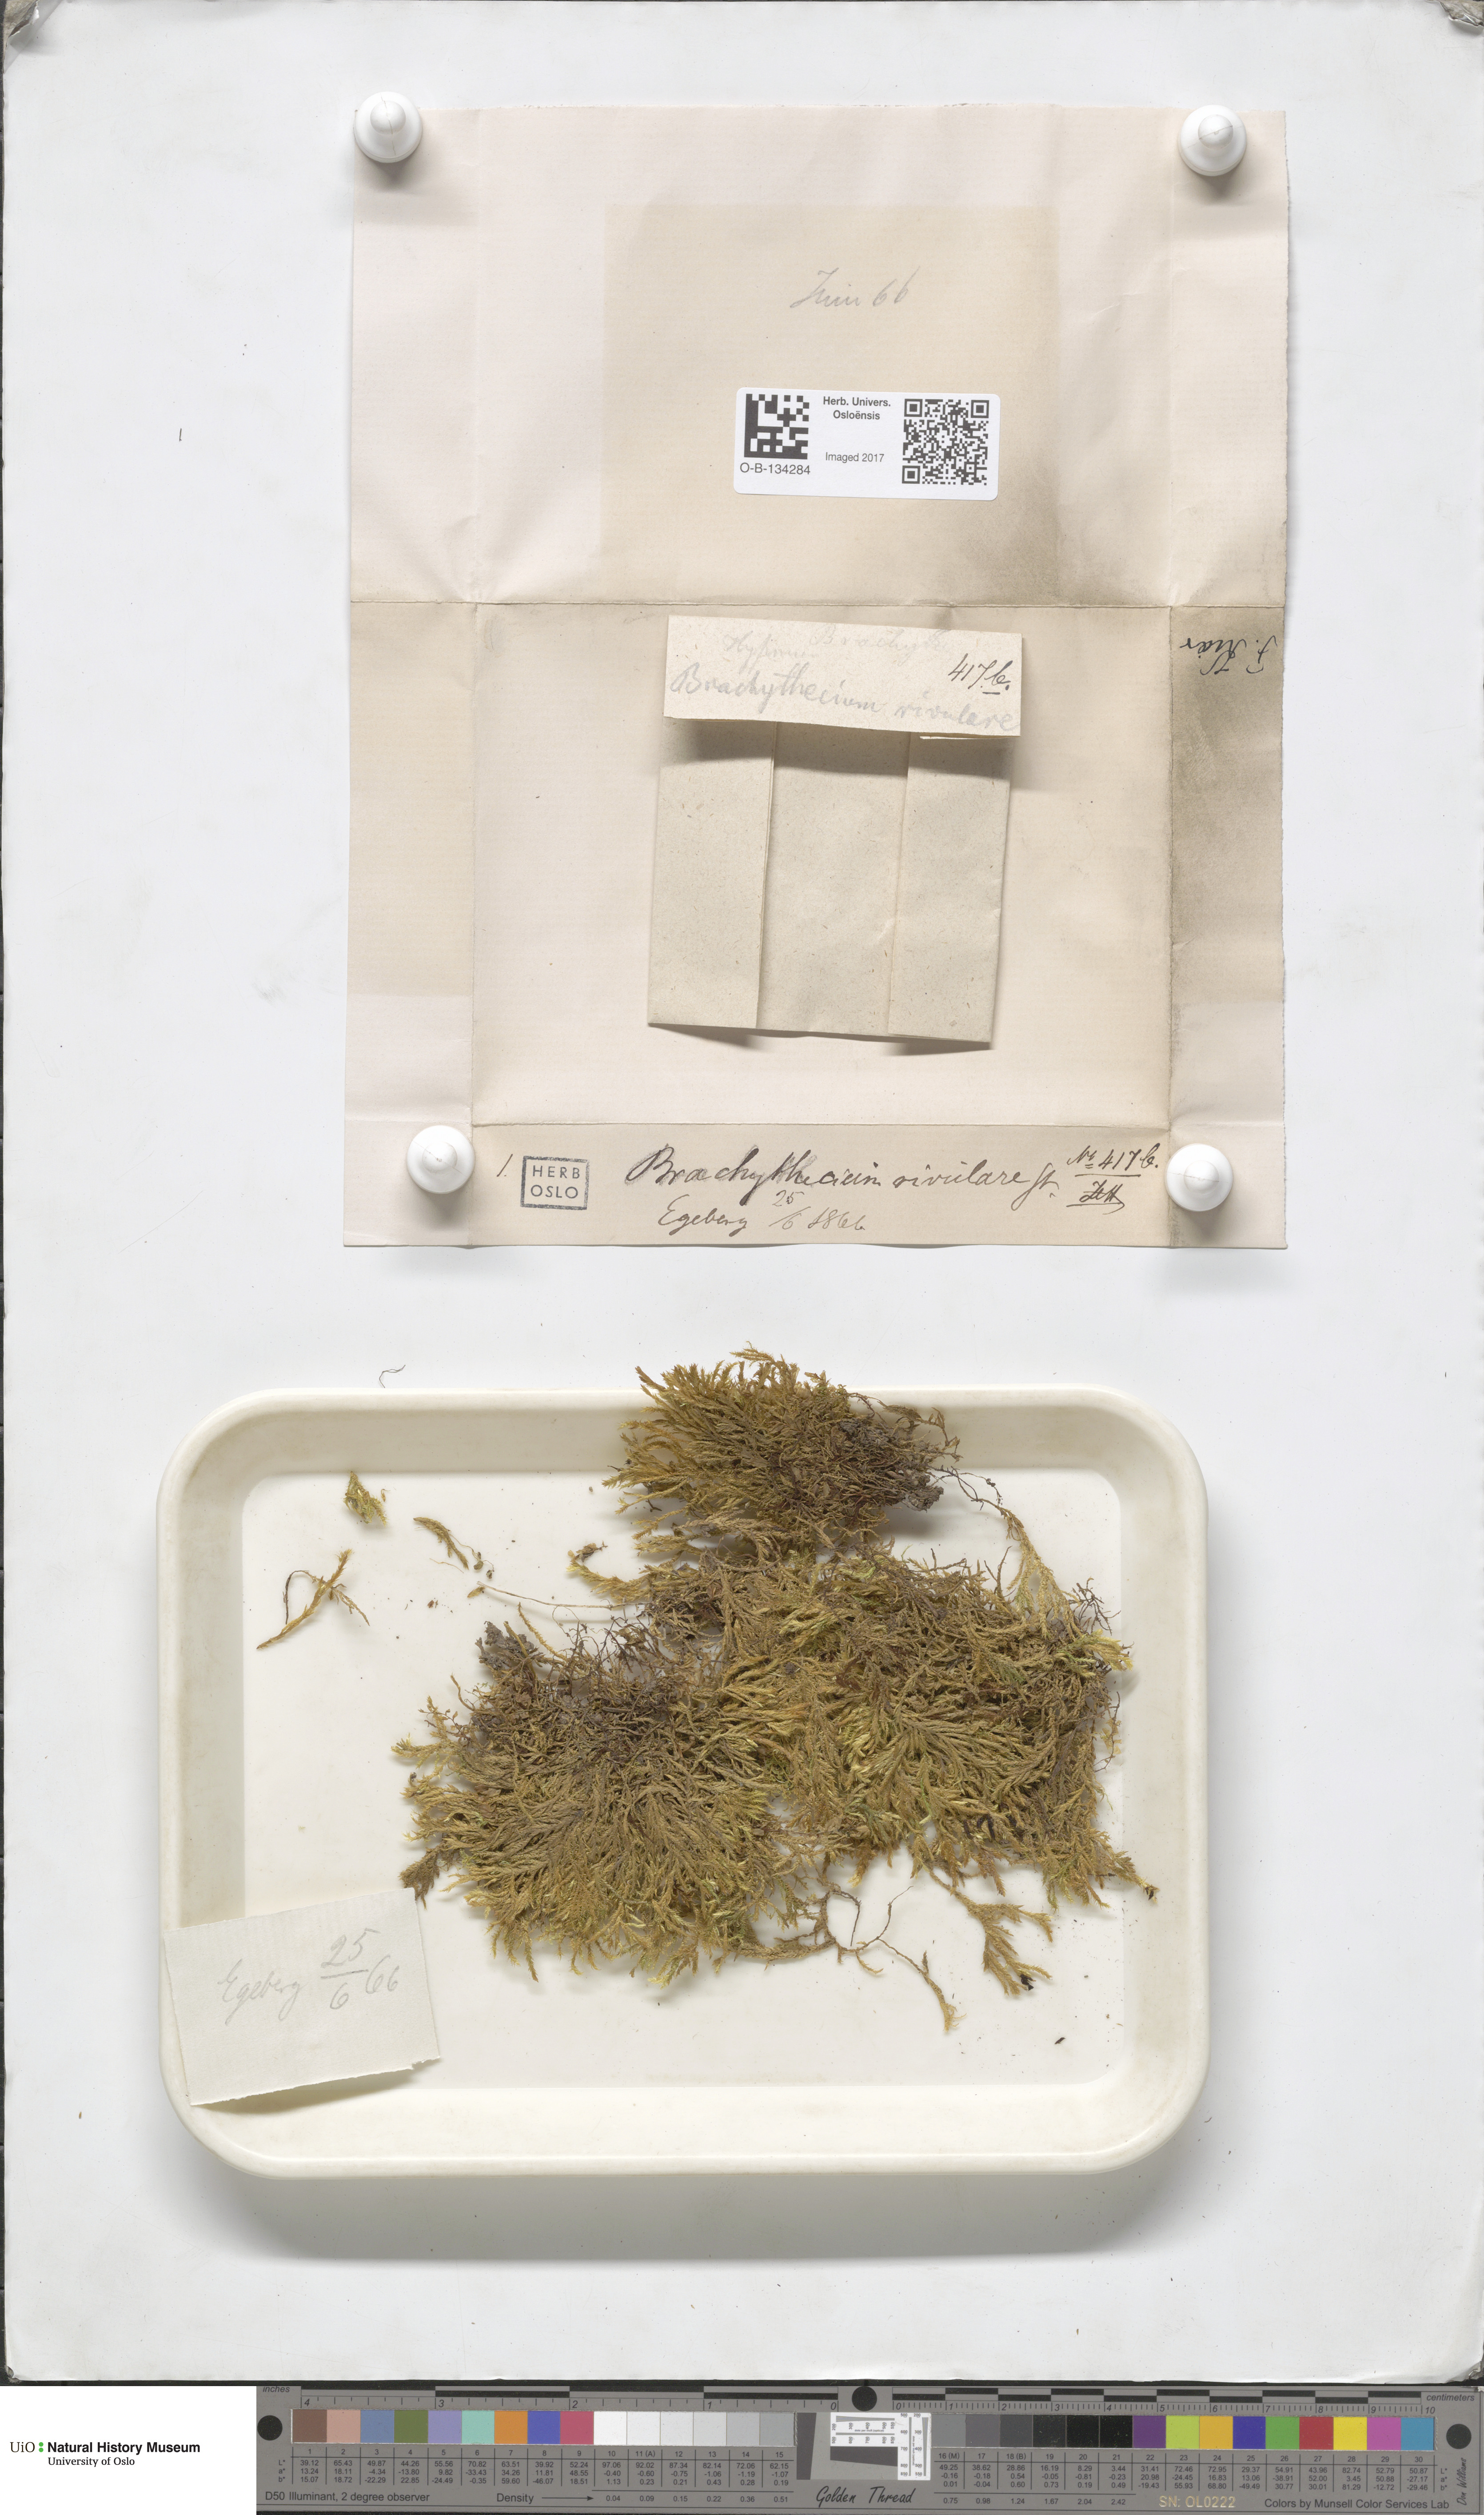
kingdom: Plantae
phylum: Bryophyta
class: Bryopsida
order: Hypnales
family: Brachytheciaceae
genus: Brachythecium
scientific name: Brachythecium rivulare
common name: River ragged moss
